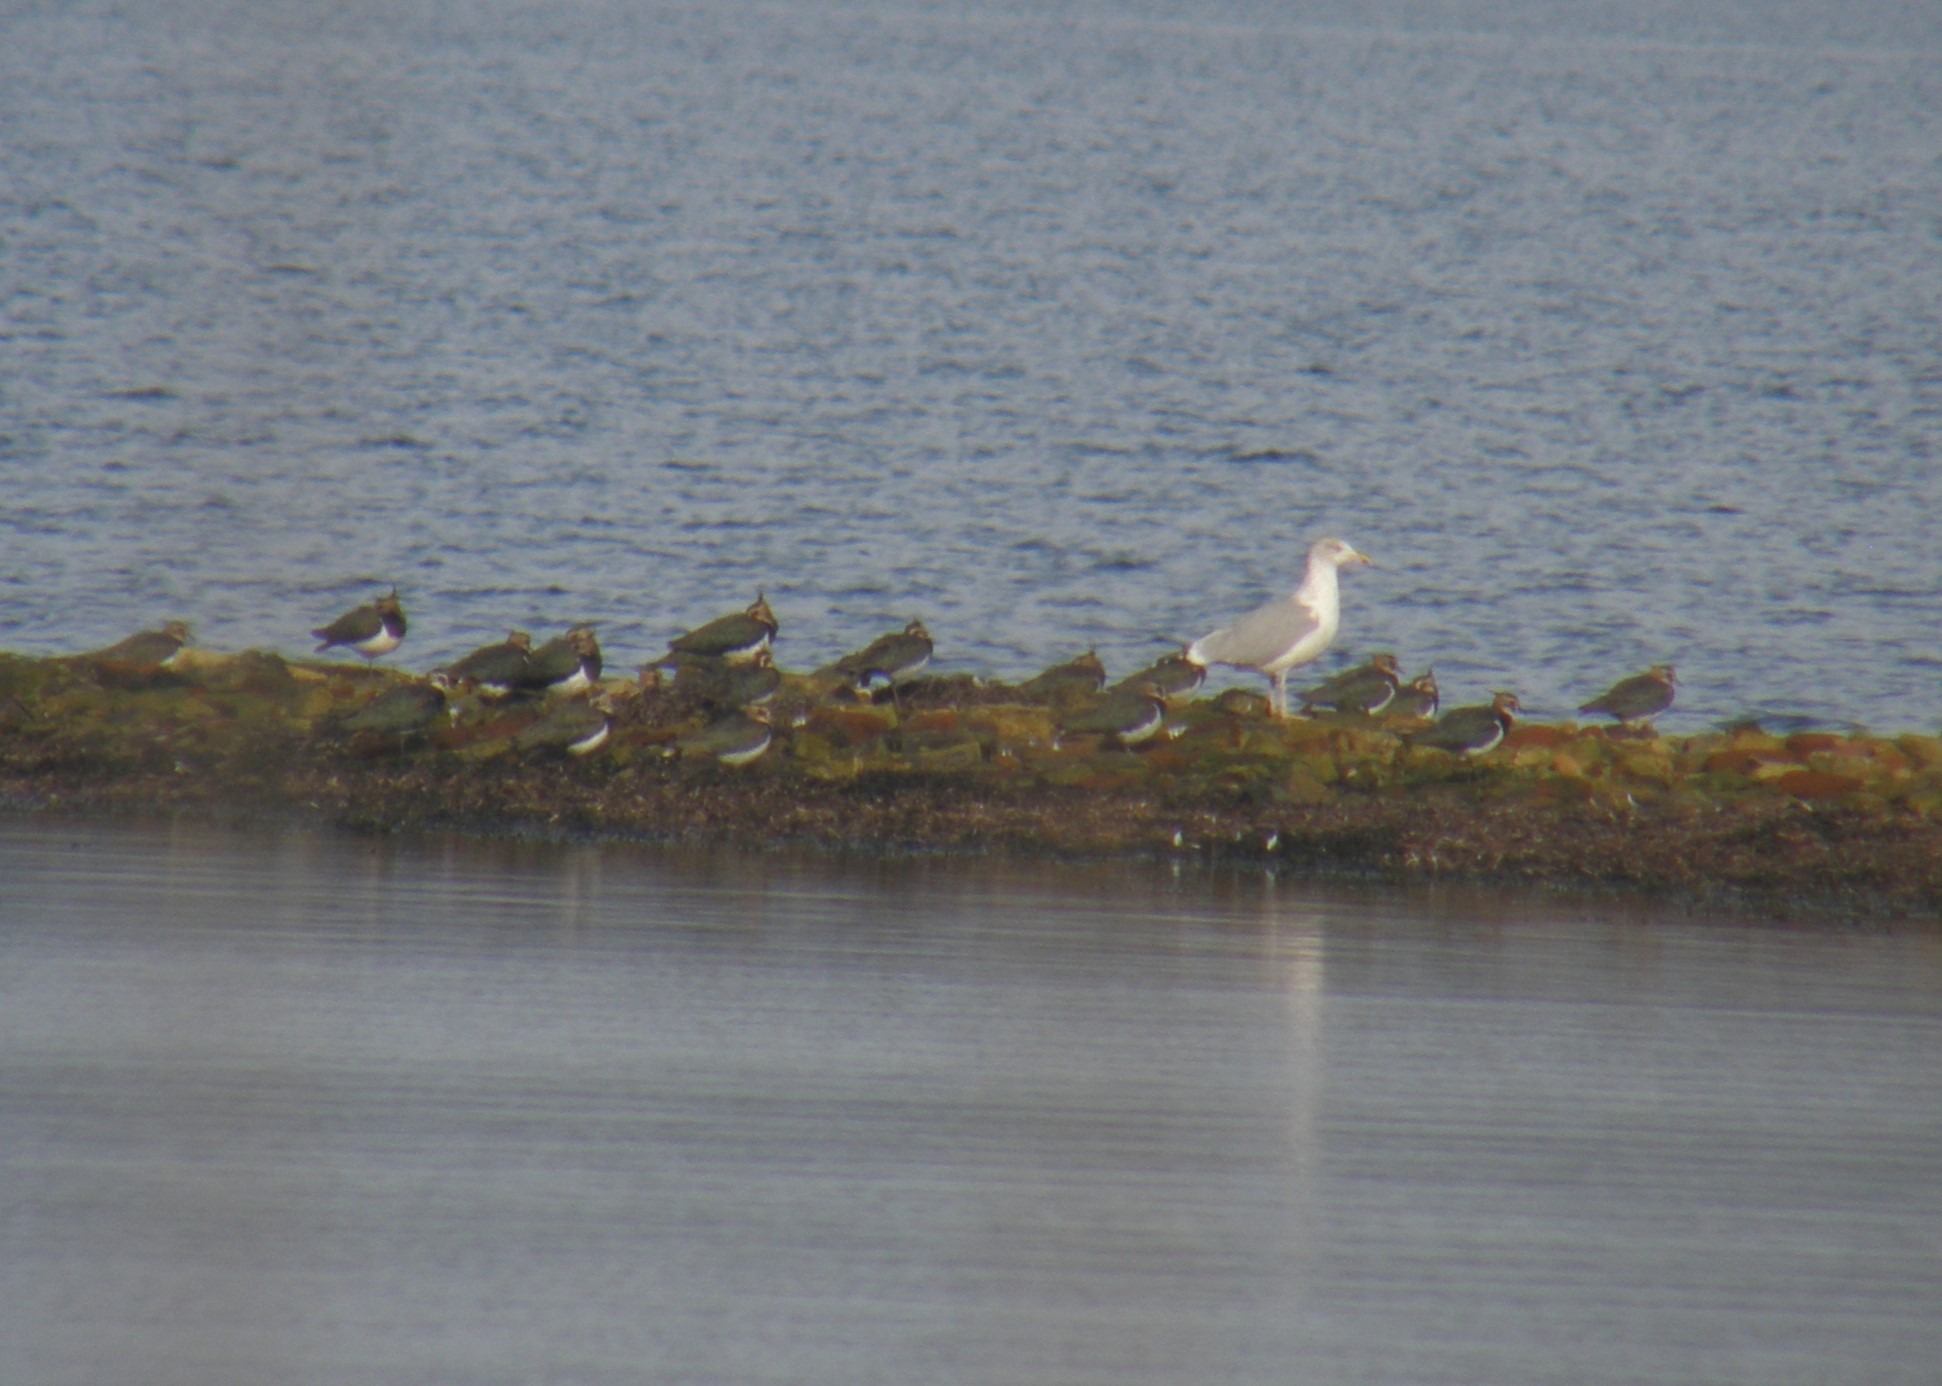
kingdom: Animalia
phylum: Chordata
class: Aves
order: Charadriiformes
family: Charadriidae
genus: Vanellus
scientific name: Vanellus vanellus
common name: Vibe
